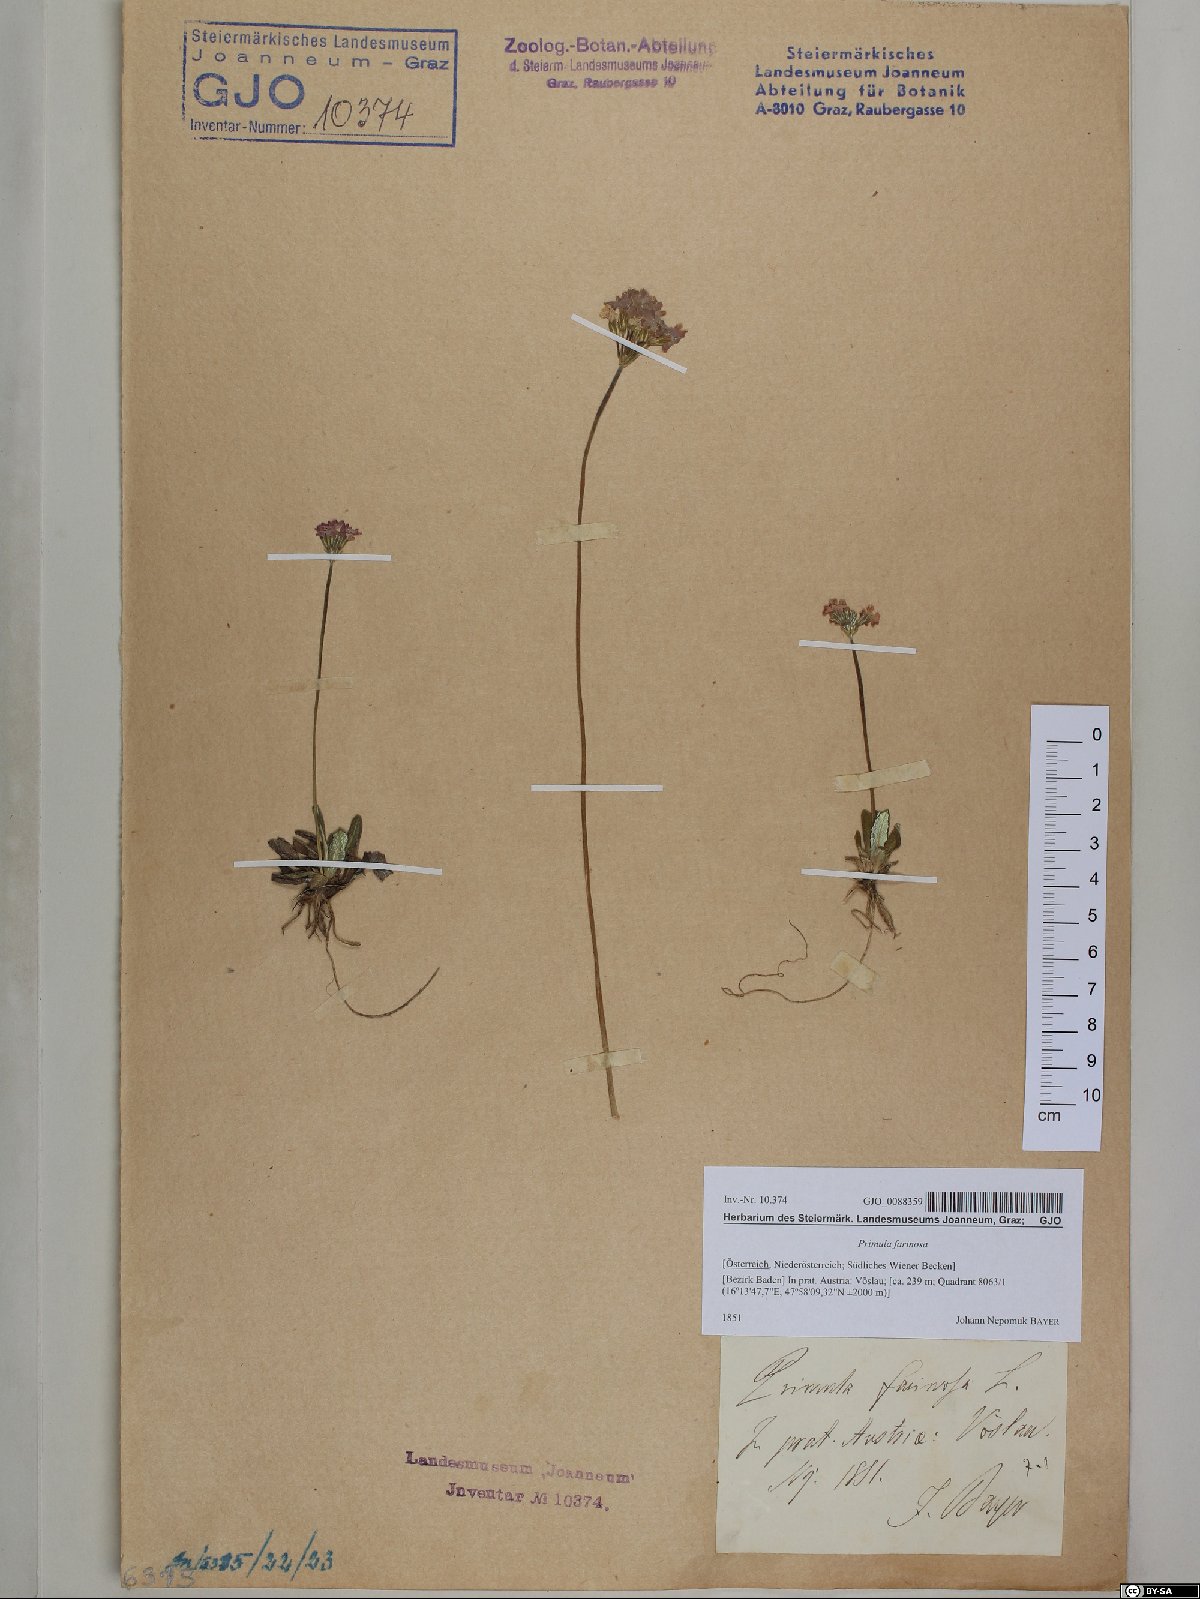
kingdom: Plantae
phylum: Tracheophyta
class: Magnoliopsida
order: Ericales
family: Primulaceae
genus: Primula
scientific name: Primula farinosa
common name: Bird's-eye primrose
